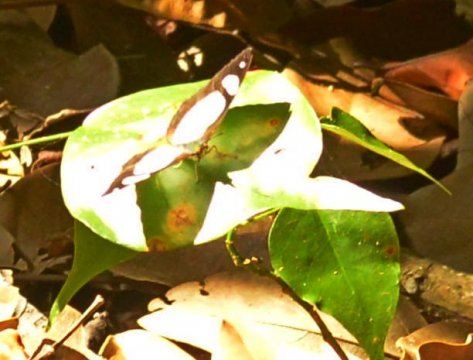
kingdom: Animalia
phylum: Arthropoda
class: Insecta
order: Lepidoptera
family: Nymphalidae
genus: Pyrrhogyra
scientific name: Pyrrhogyra otolais
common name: Double-banded Banner
